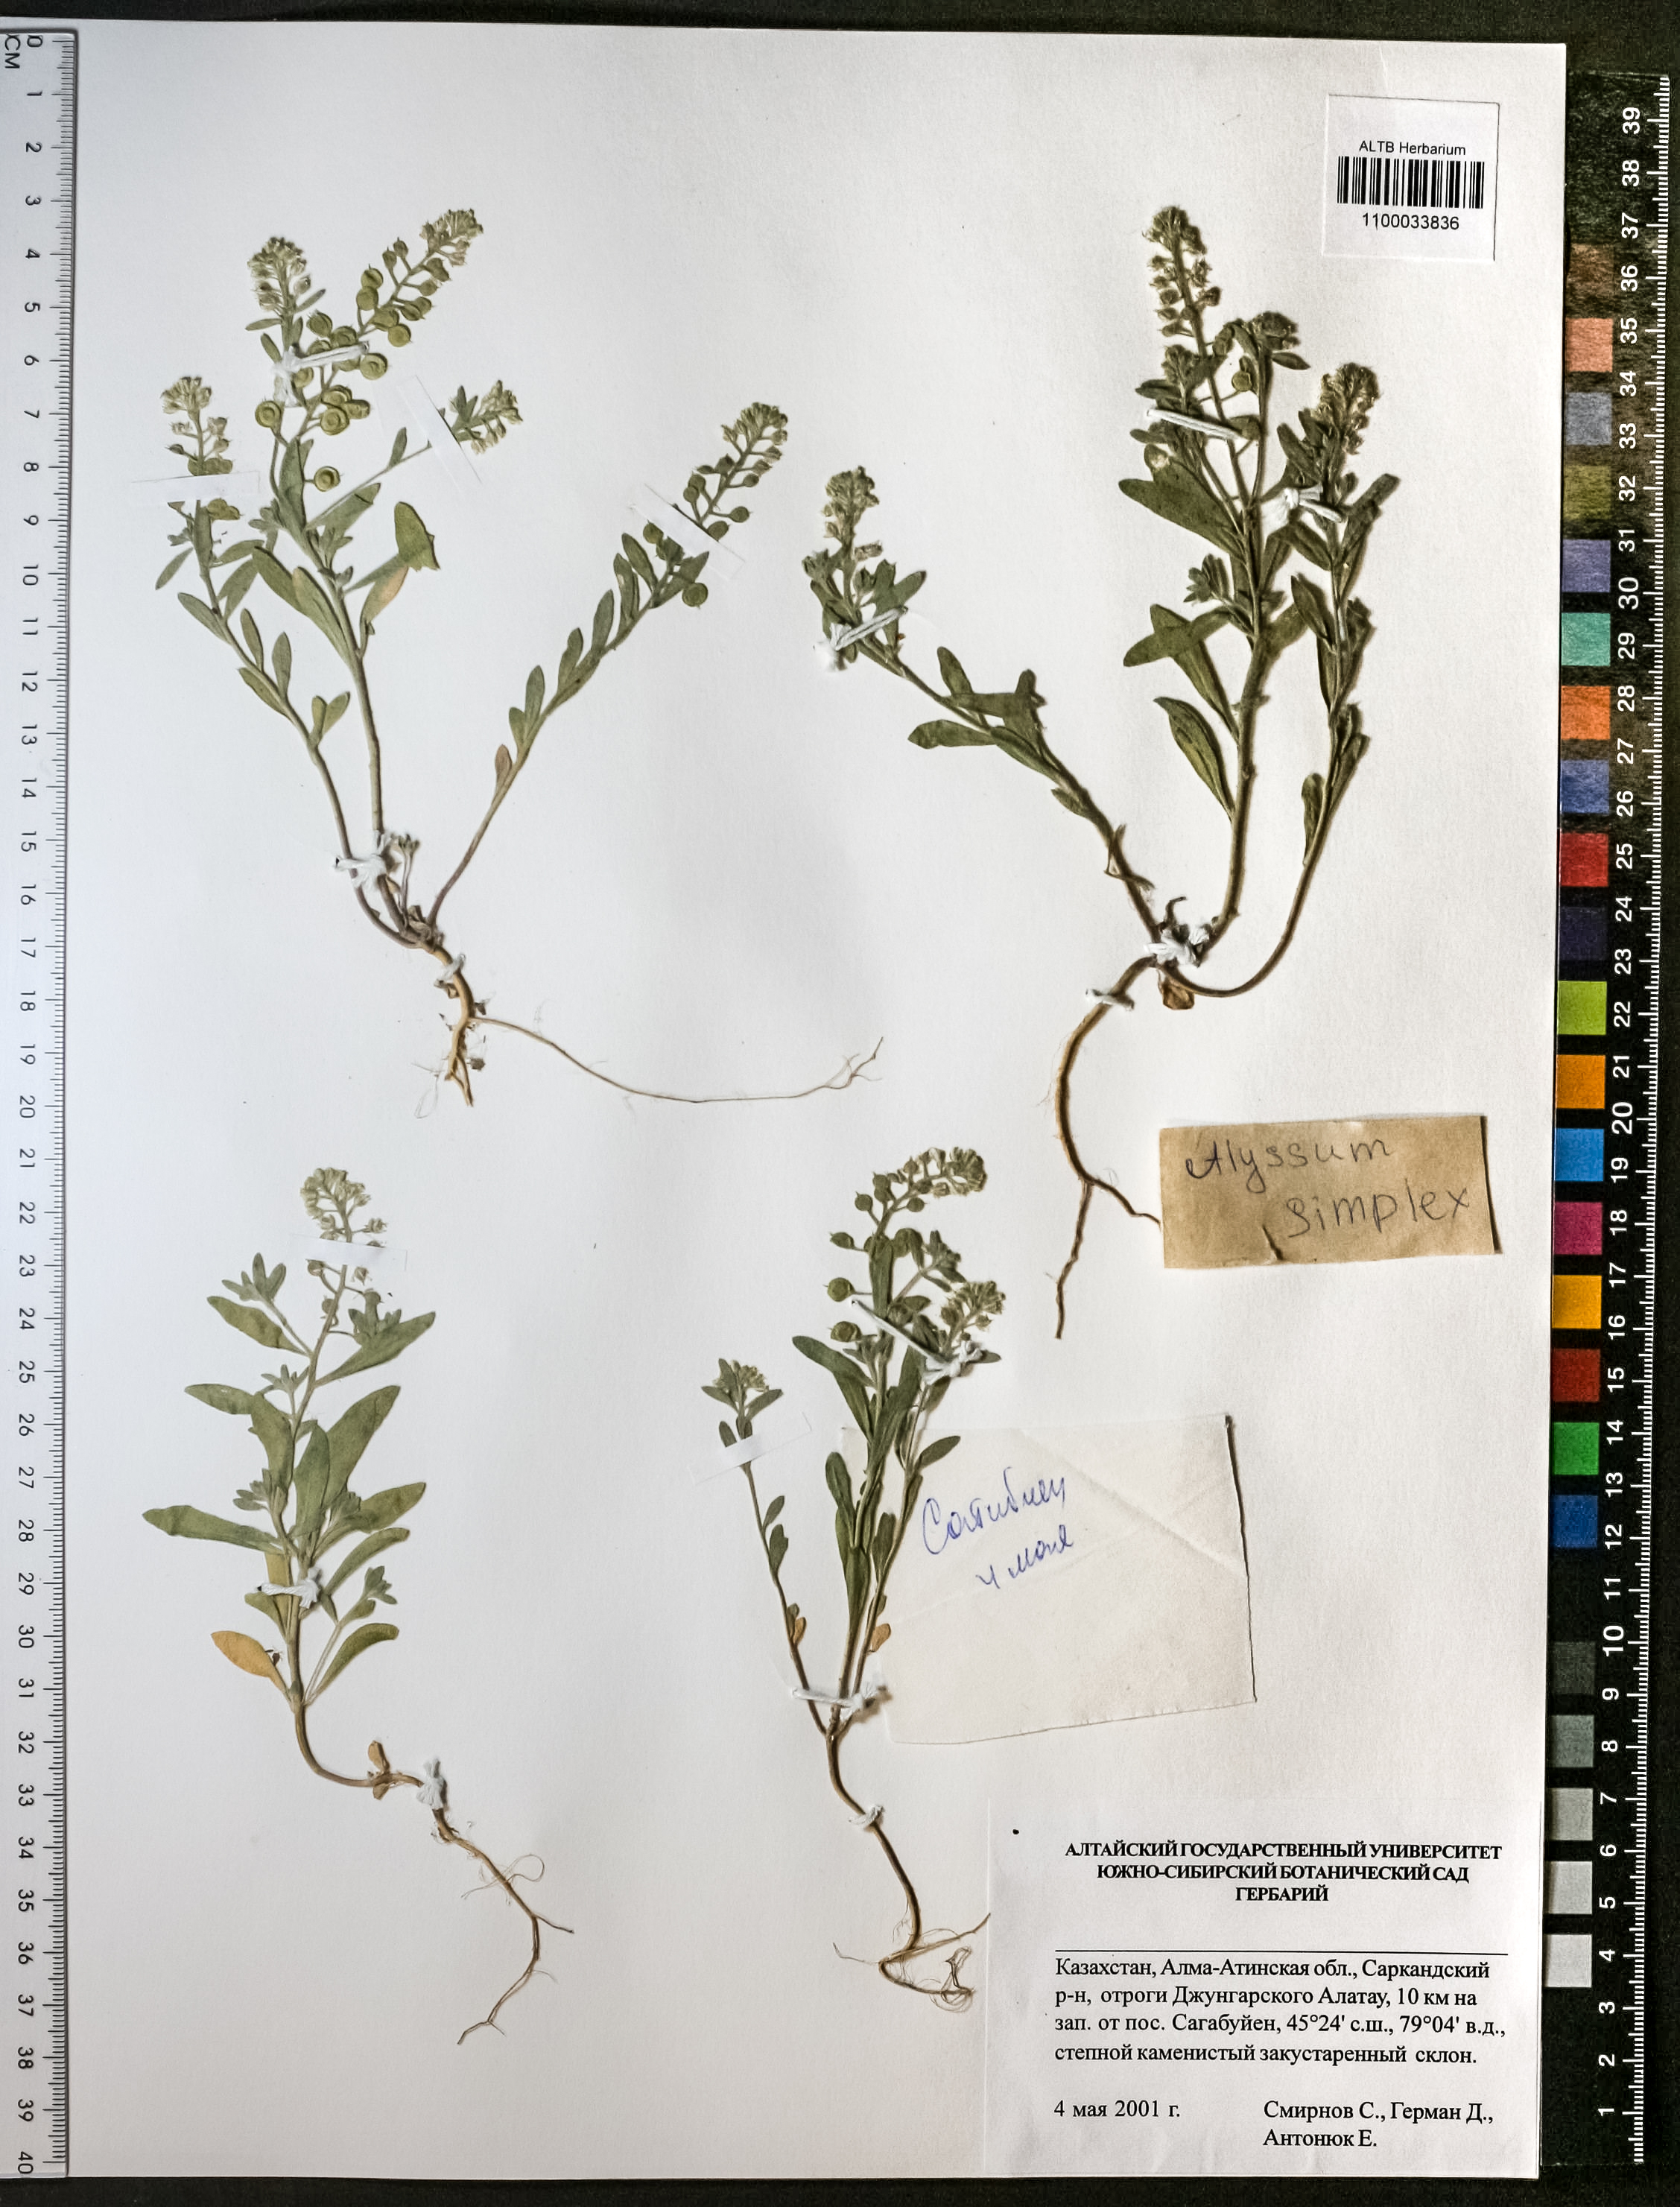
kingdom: Plantae
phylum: Tracheophyta
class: Magnoliopsida
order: Brassicales
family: Brassicaceae
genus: Alyssum
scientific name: Alyssum simplex
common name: Alyssum
